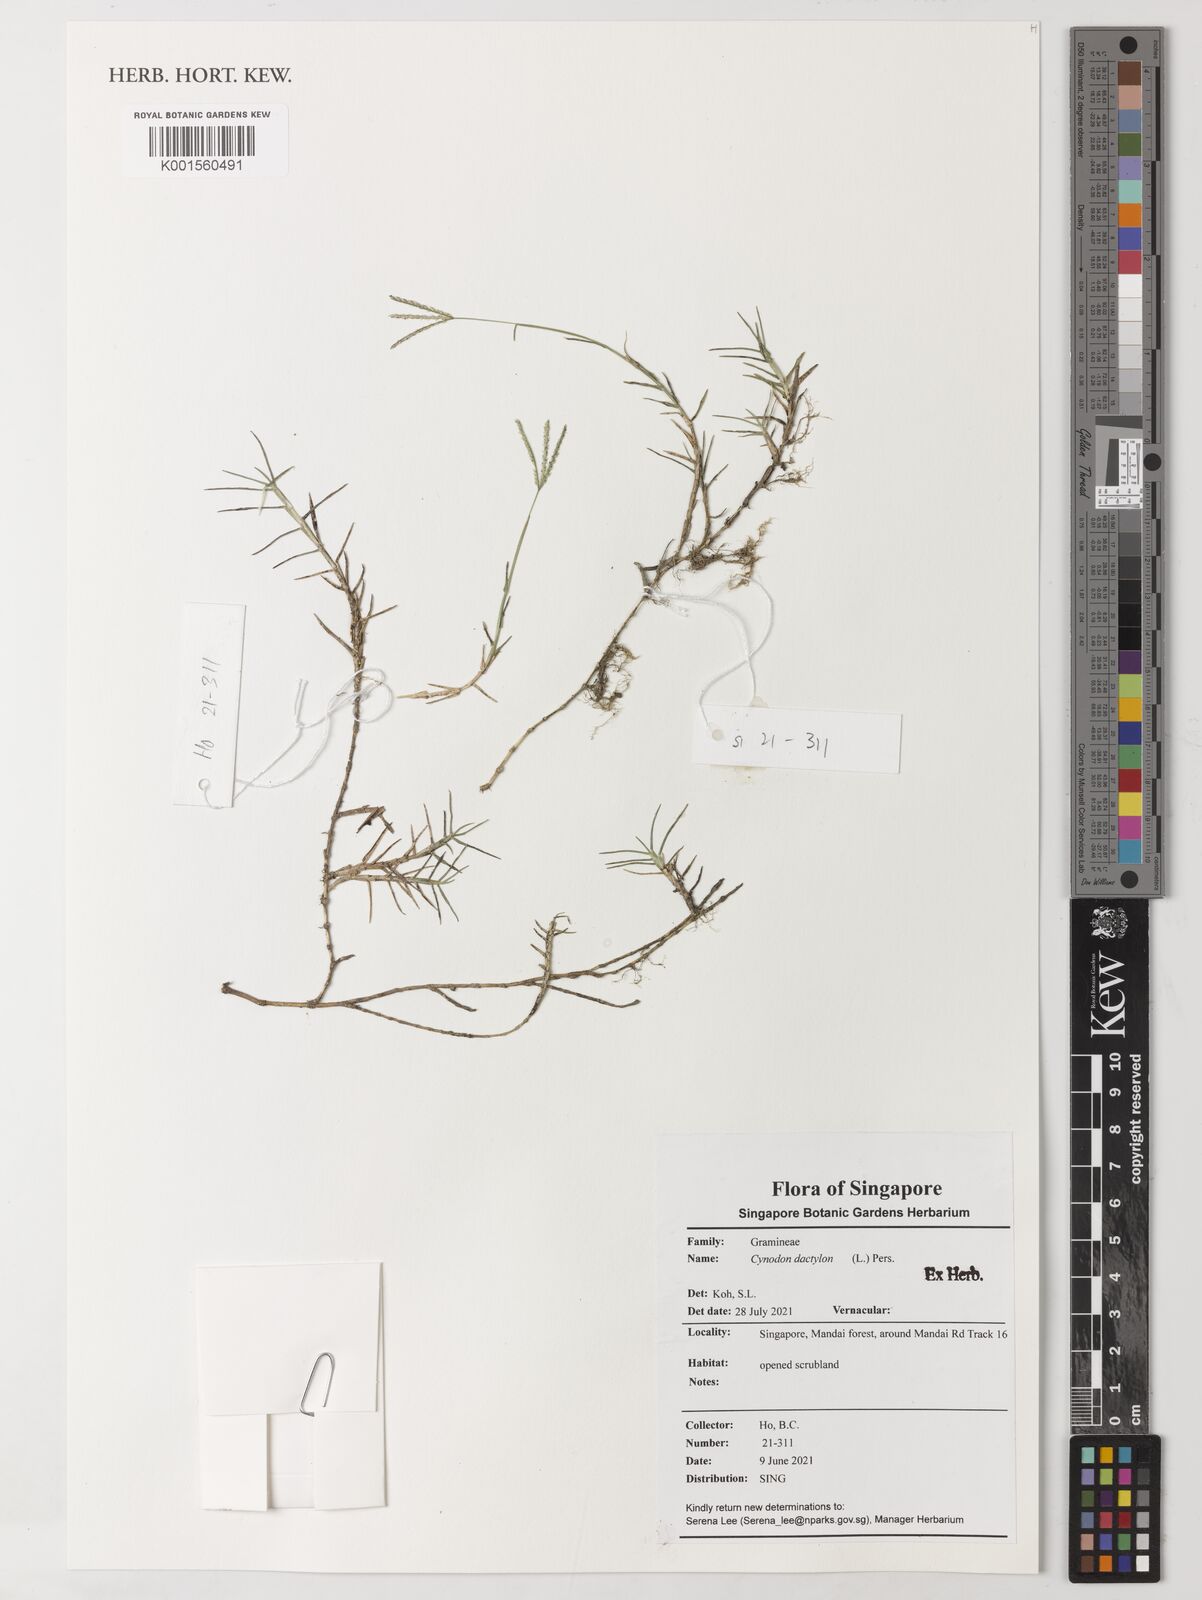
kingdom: Plantae
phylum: Tracheophyta
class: Liliopsida
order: Poales
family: Poaceae
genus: Cynodon
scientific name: Cynodon dactylon
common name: Bermuda grass
